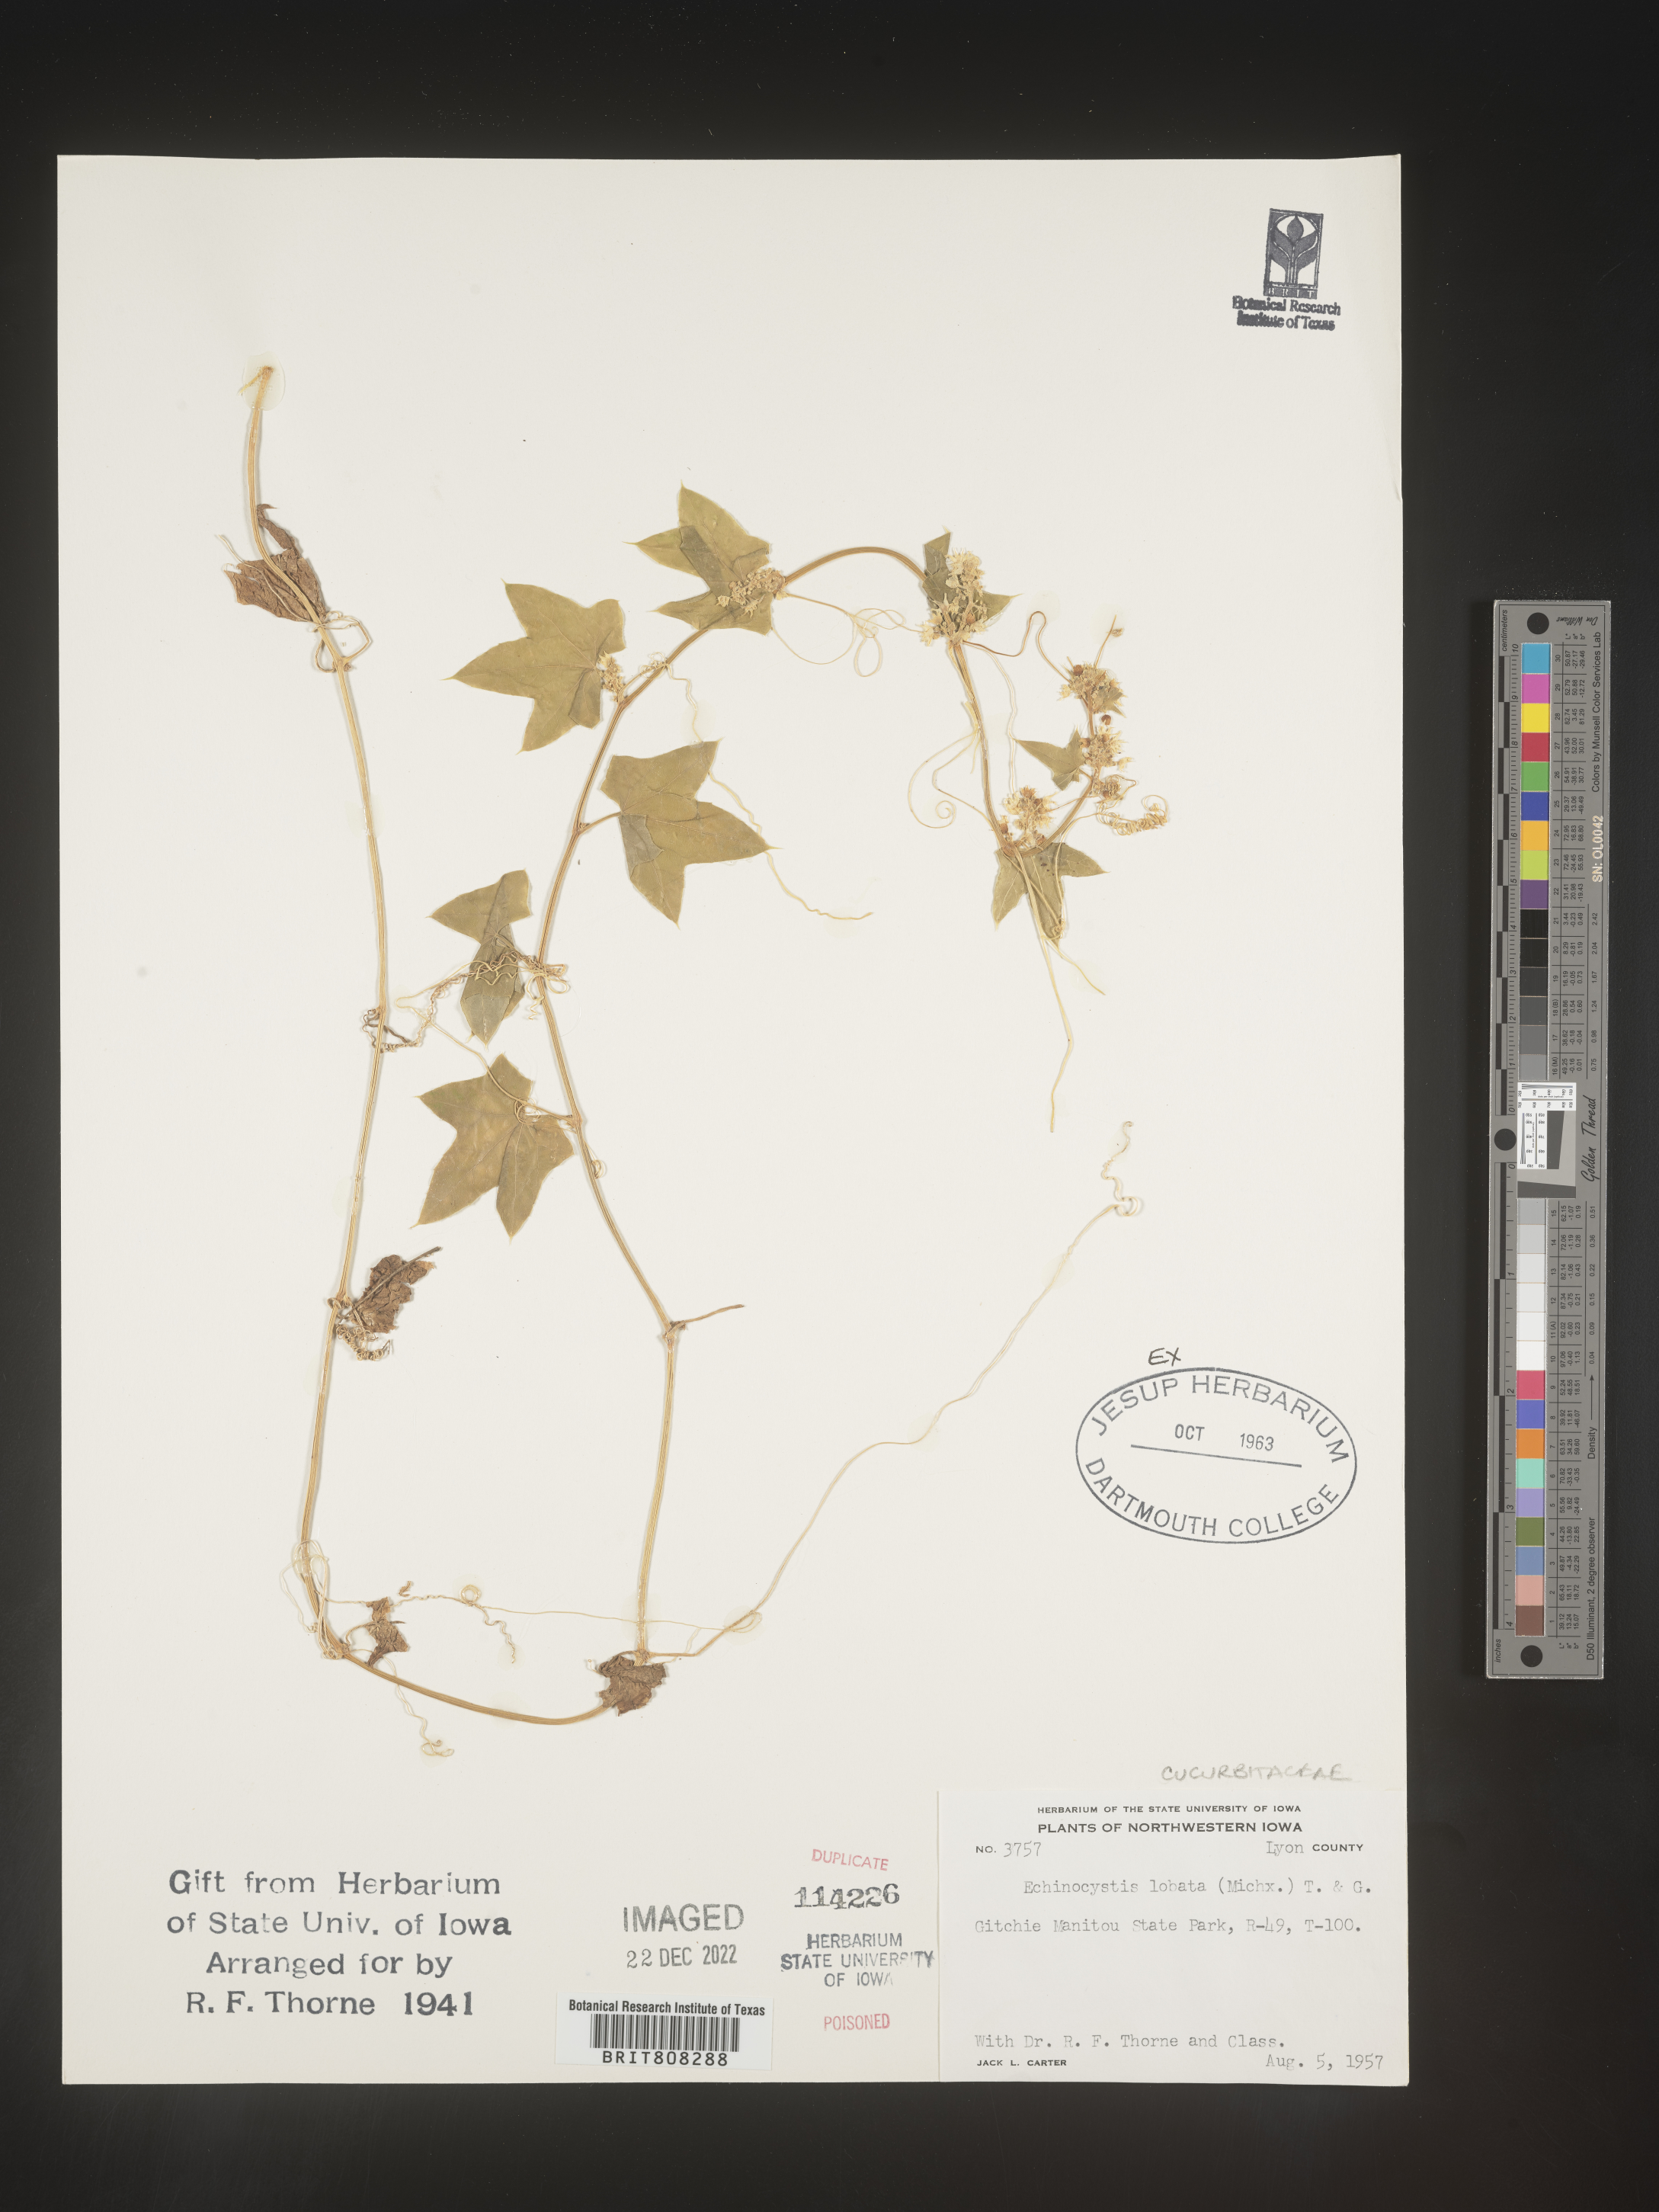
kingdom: Plantae
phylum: Tracheophyta
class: Magnoliopsida
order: Cucurbitales
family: Cucurbitaceae
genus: Echinocystis
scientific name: Echinocystis
